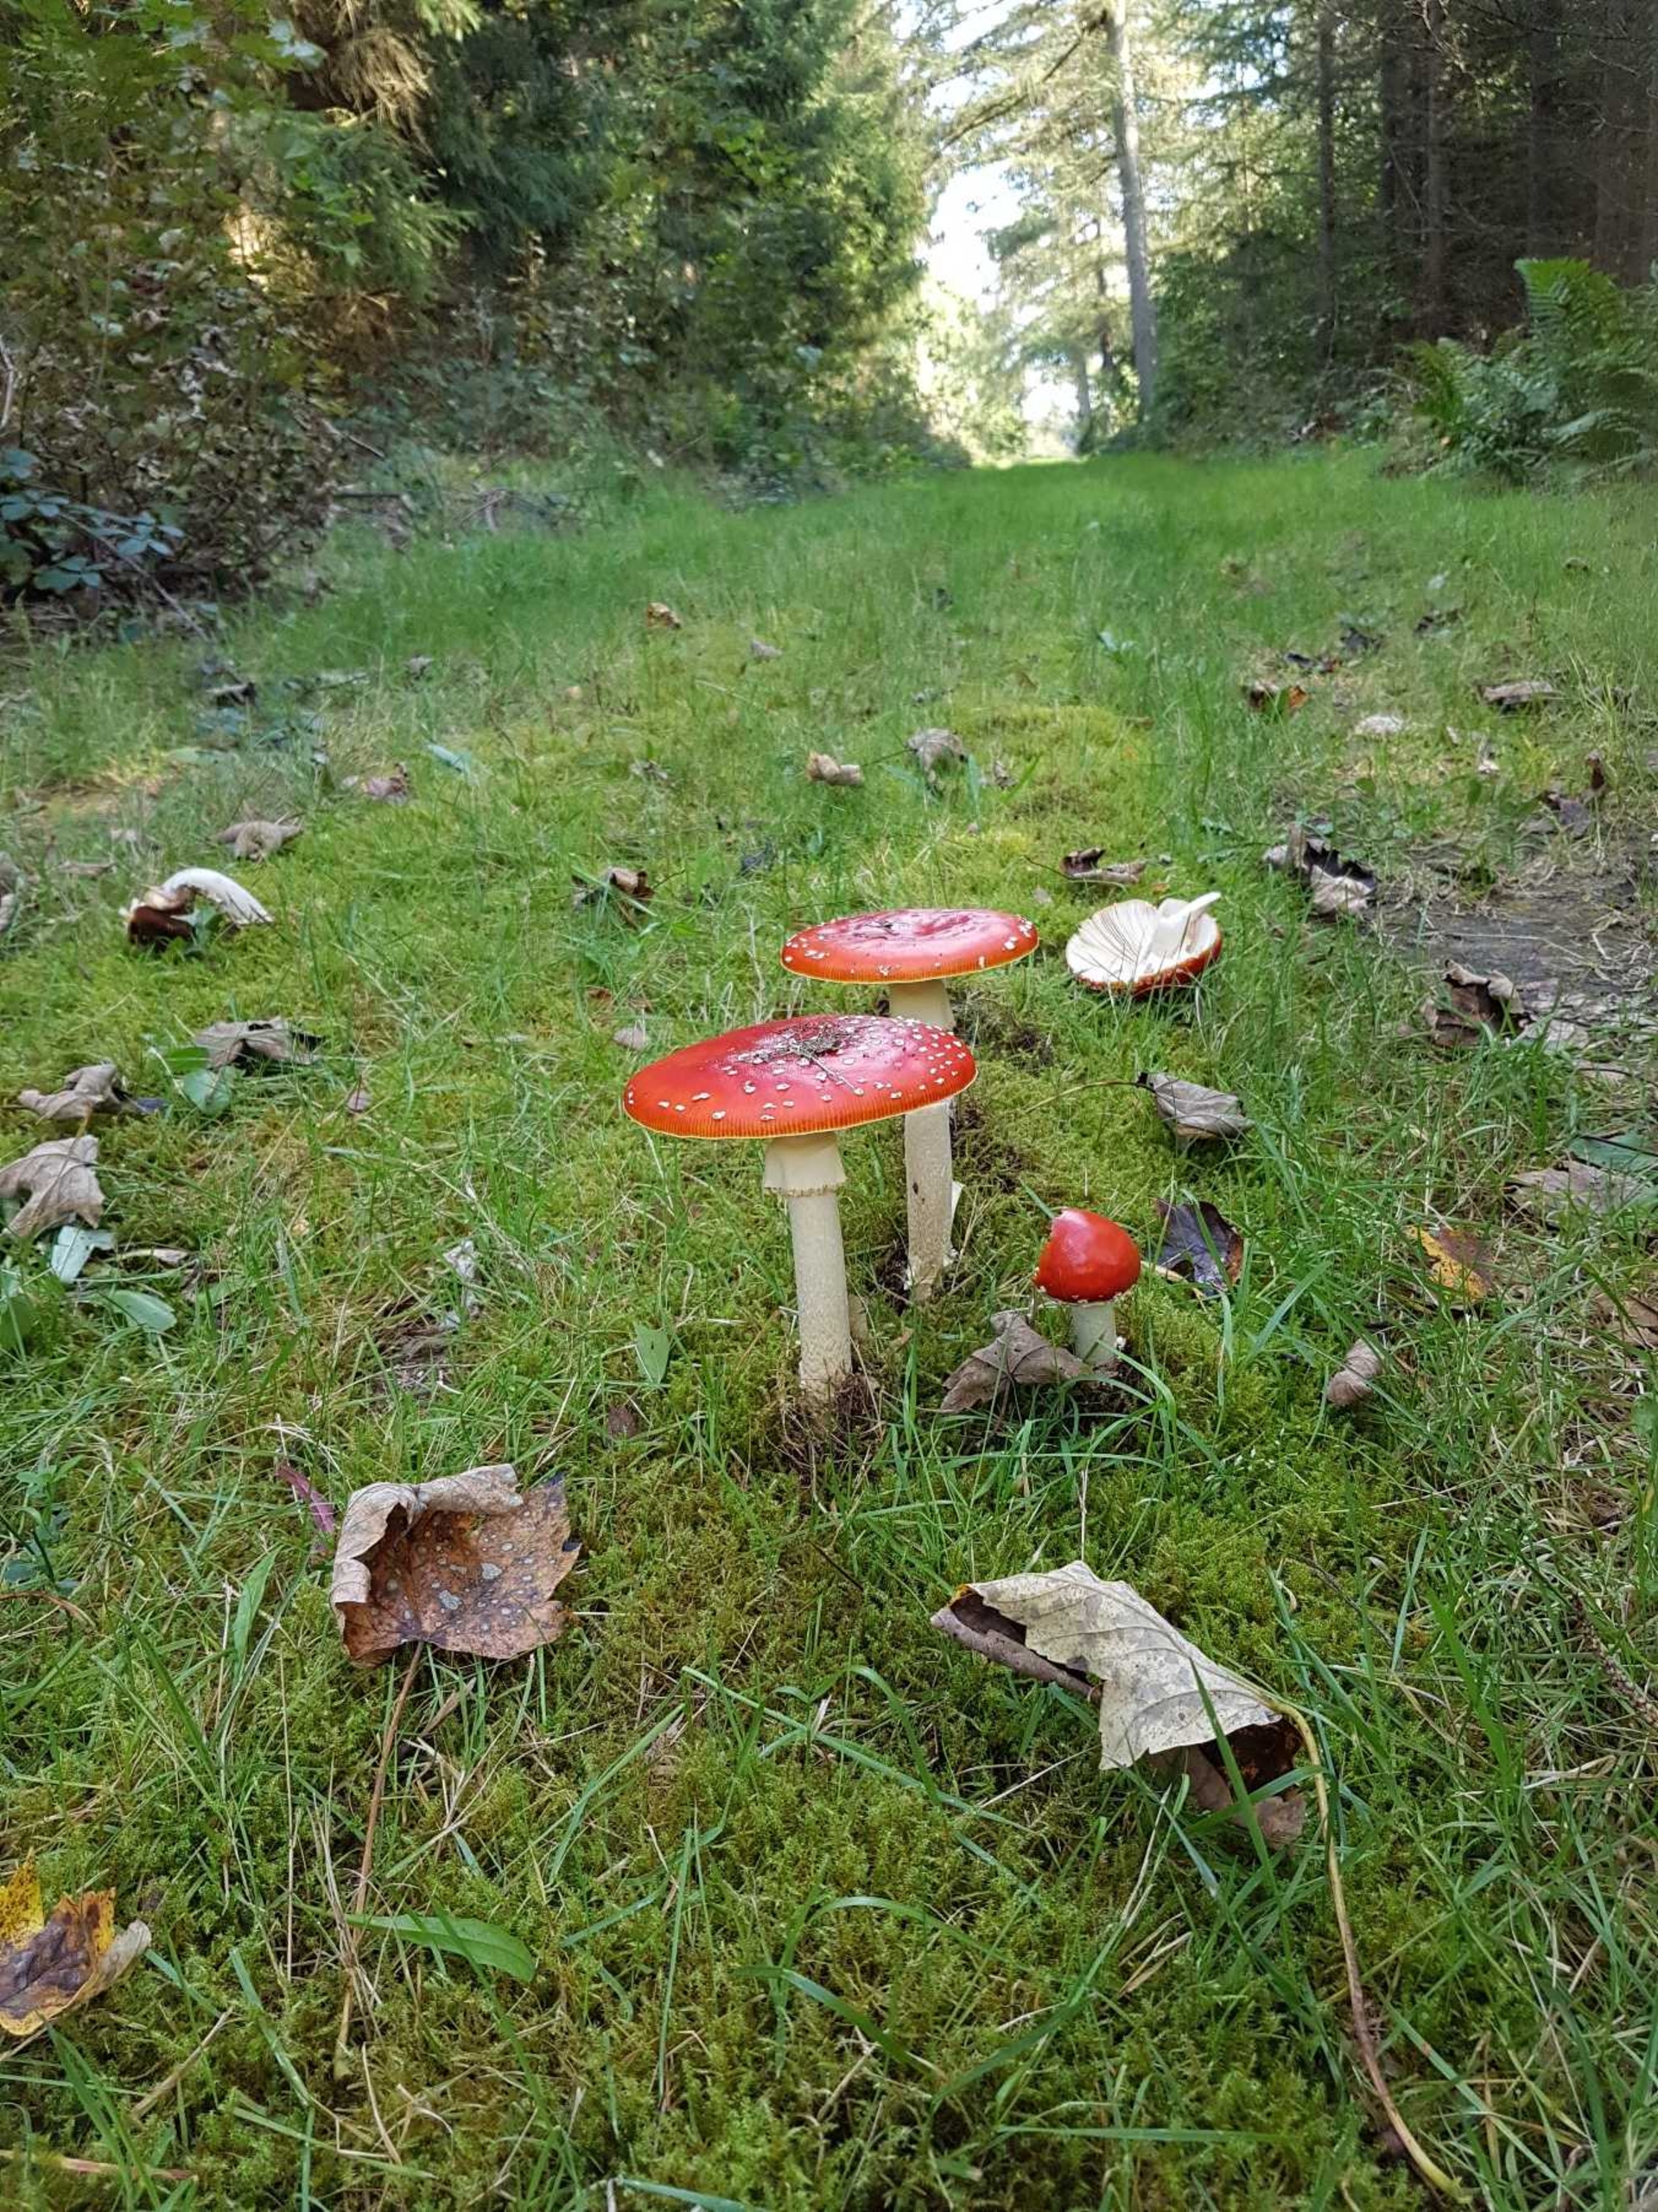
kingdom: Fungi
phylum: Basidiomycota
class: Agaricomycetes
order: Agaricales
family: Amanitaceae
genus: Amanita
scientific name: Amanita muscaria
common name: Rød fluesvamp
